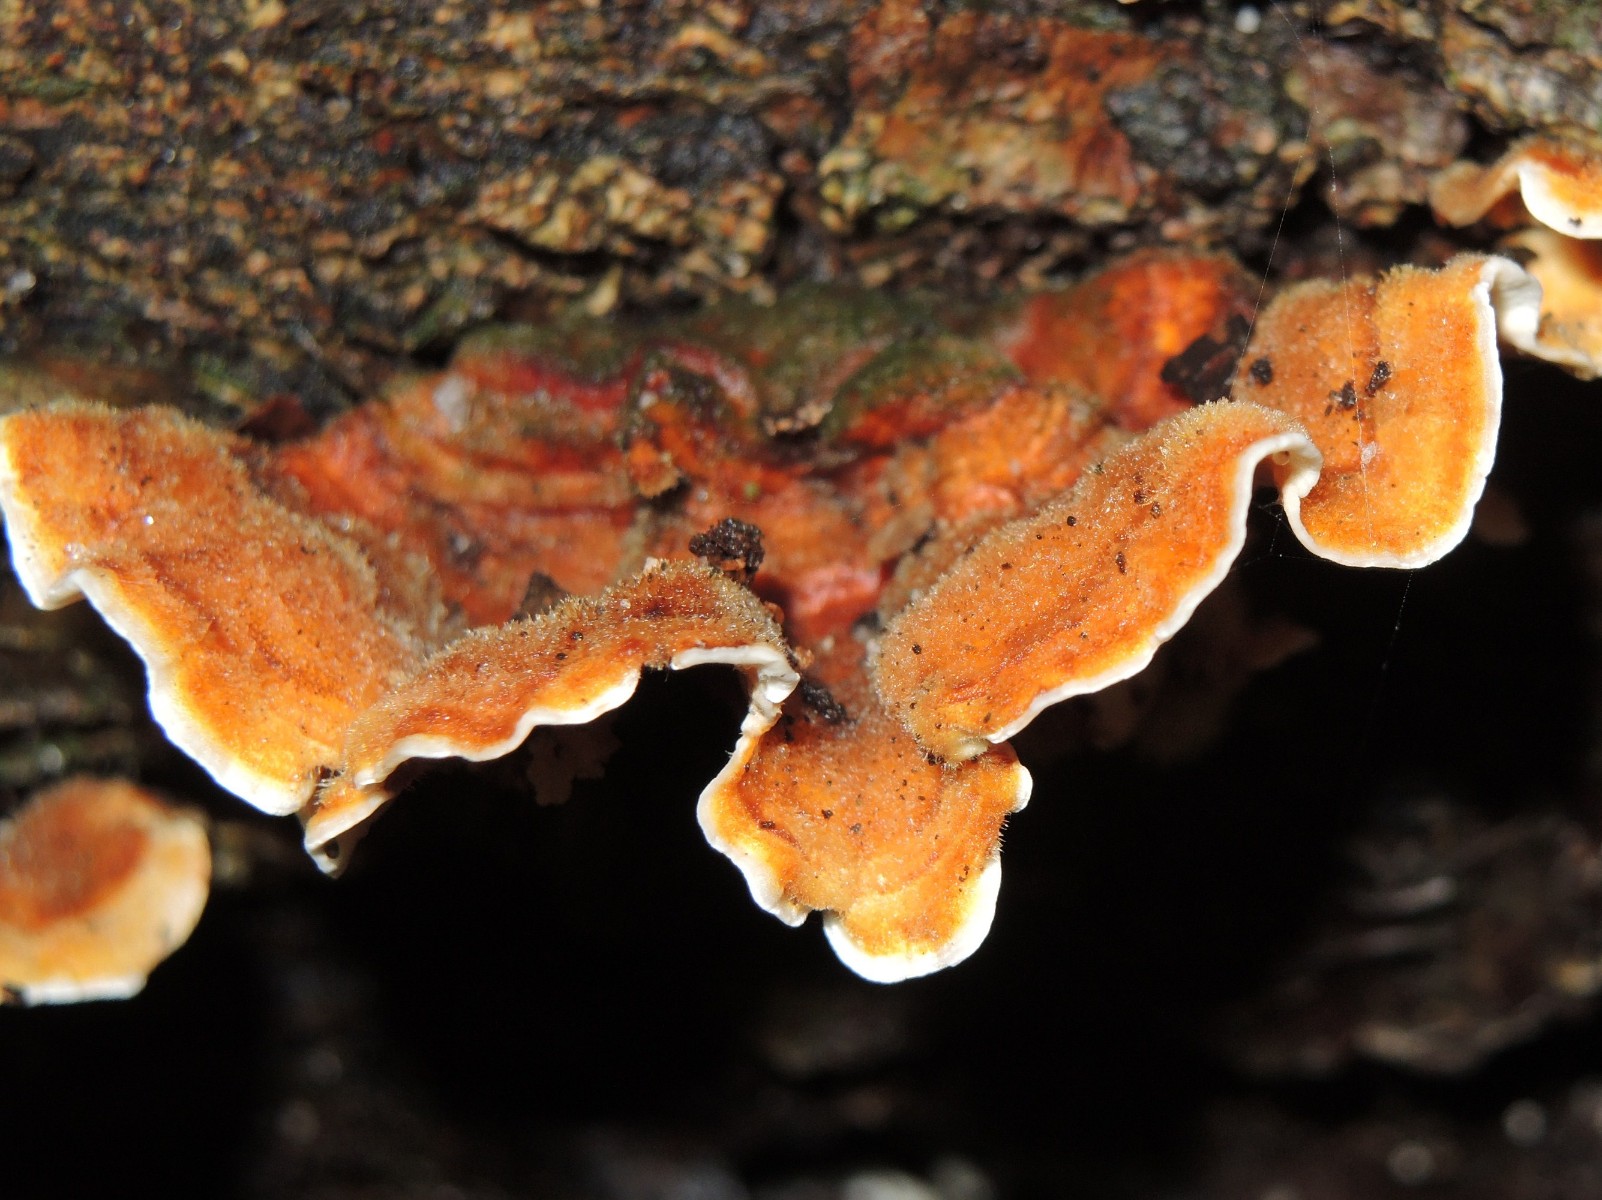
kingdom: Fungi
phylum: Basidiomycota
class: Agaricomycetes
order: Russulales
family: Stereaceae
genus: Stereum
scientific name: Stereum subtomentosum
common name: smuk lædersvamp
